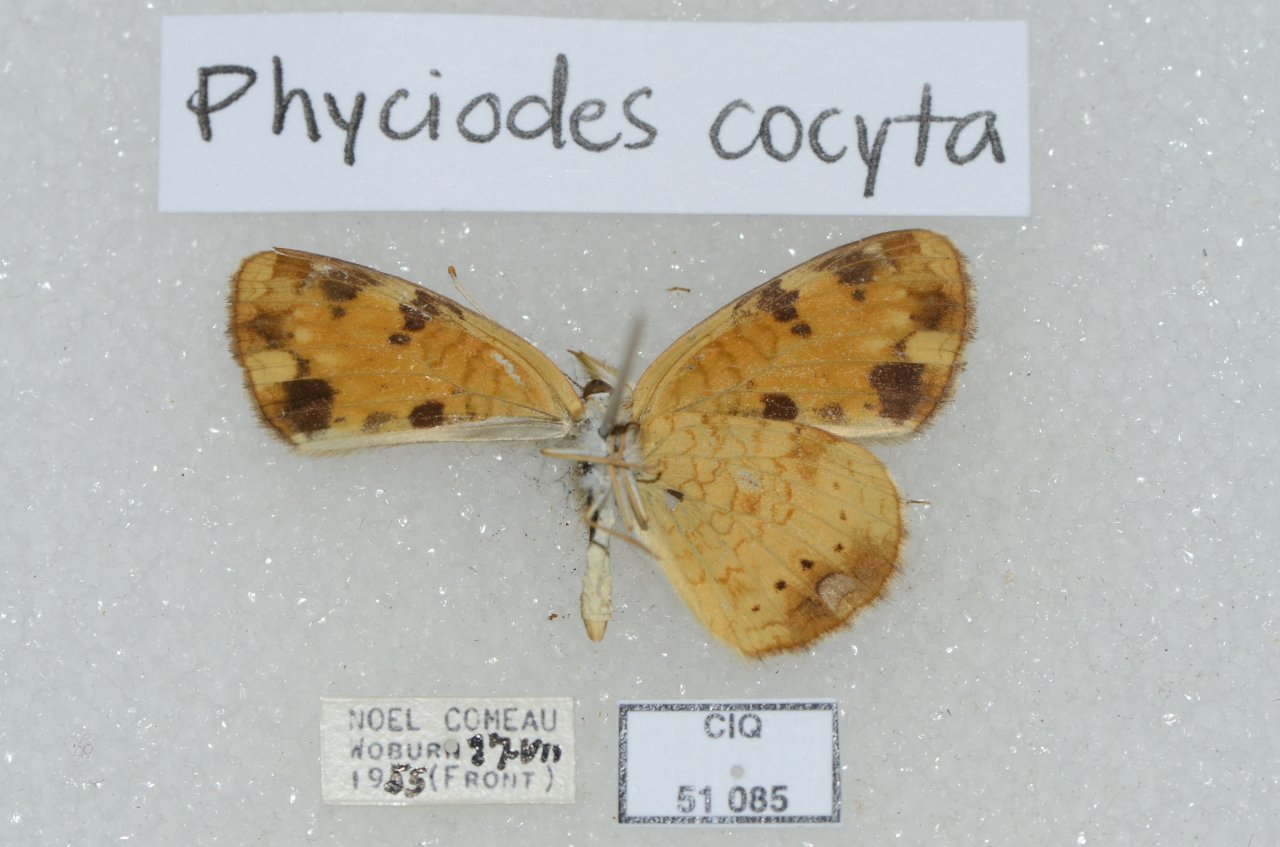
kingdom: Animalia
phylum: Arthropoda
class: Insecta
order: Lepidoptera
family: Nymphalidae
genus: Phyciodes
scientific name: Phyciodes tharos
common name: Northern Crescent
